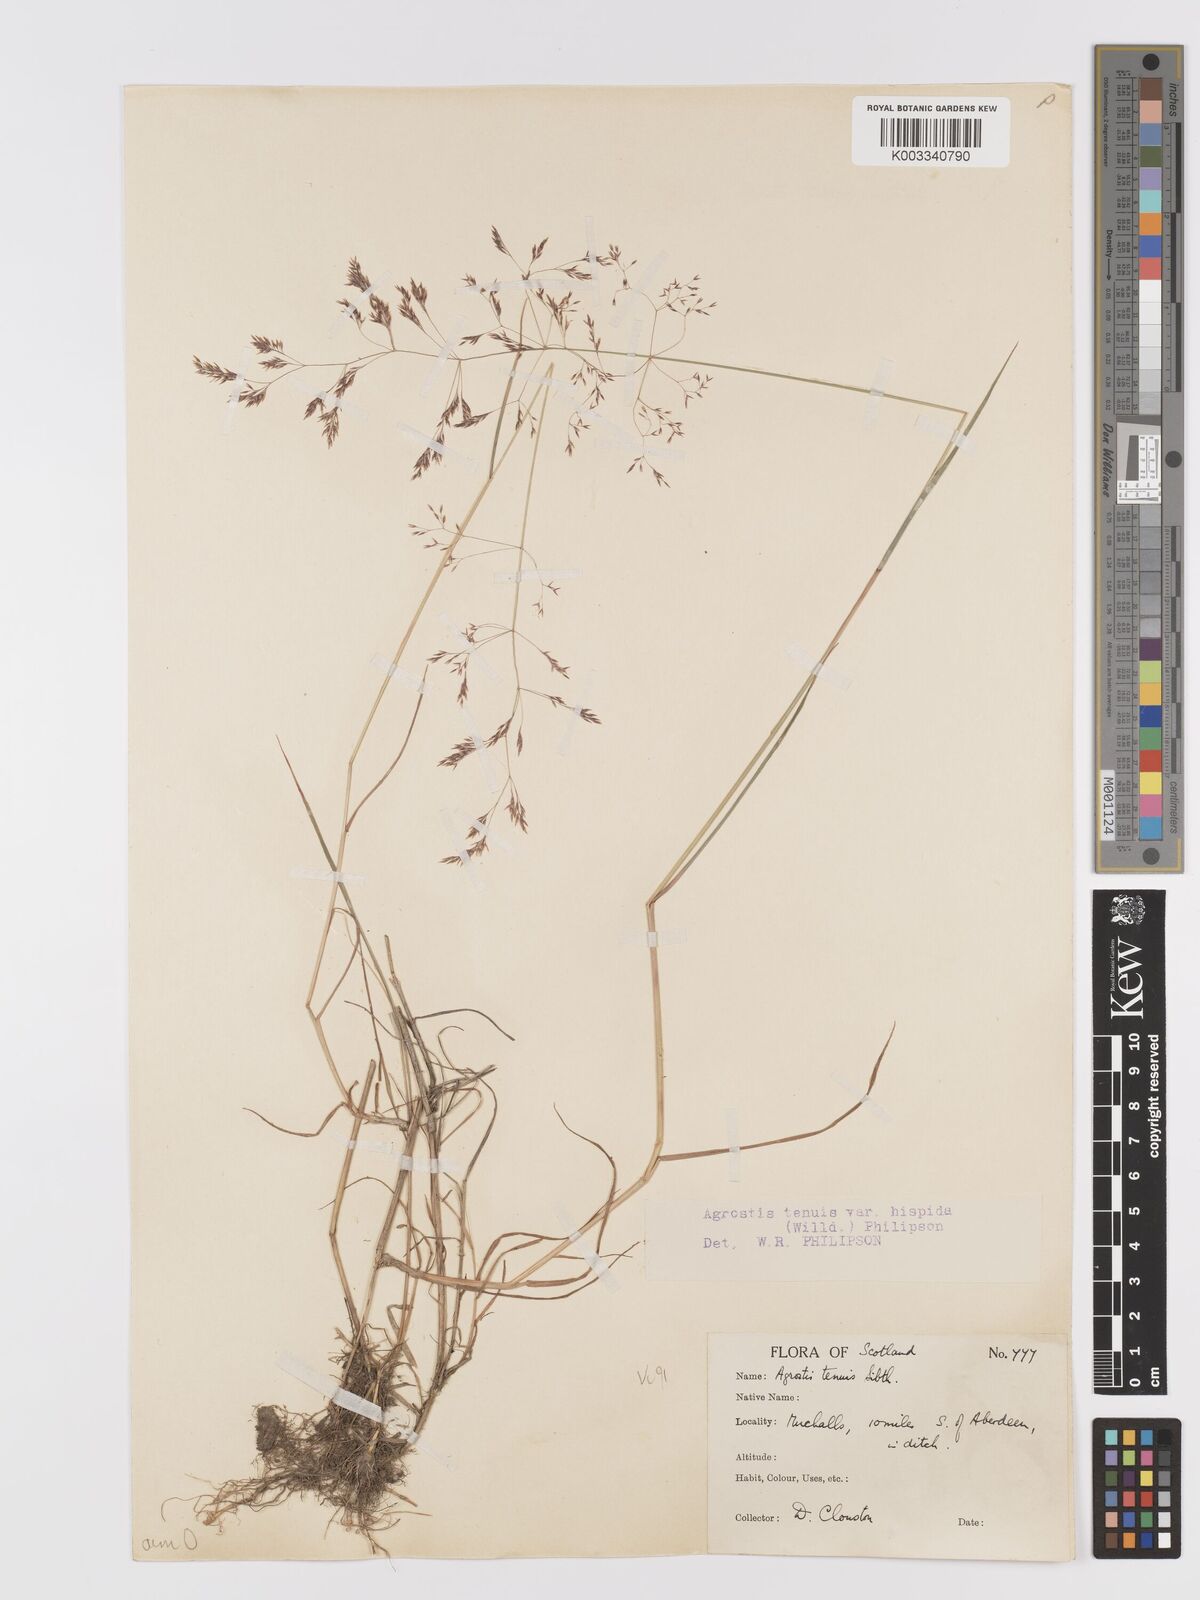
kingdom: Plantae
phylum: Tracheophyta
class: Liliopsida
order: Poales
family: Poaceae
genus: Agrostis
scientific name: Agrostis capillaris
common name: Colonial bentgrass
